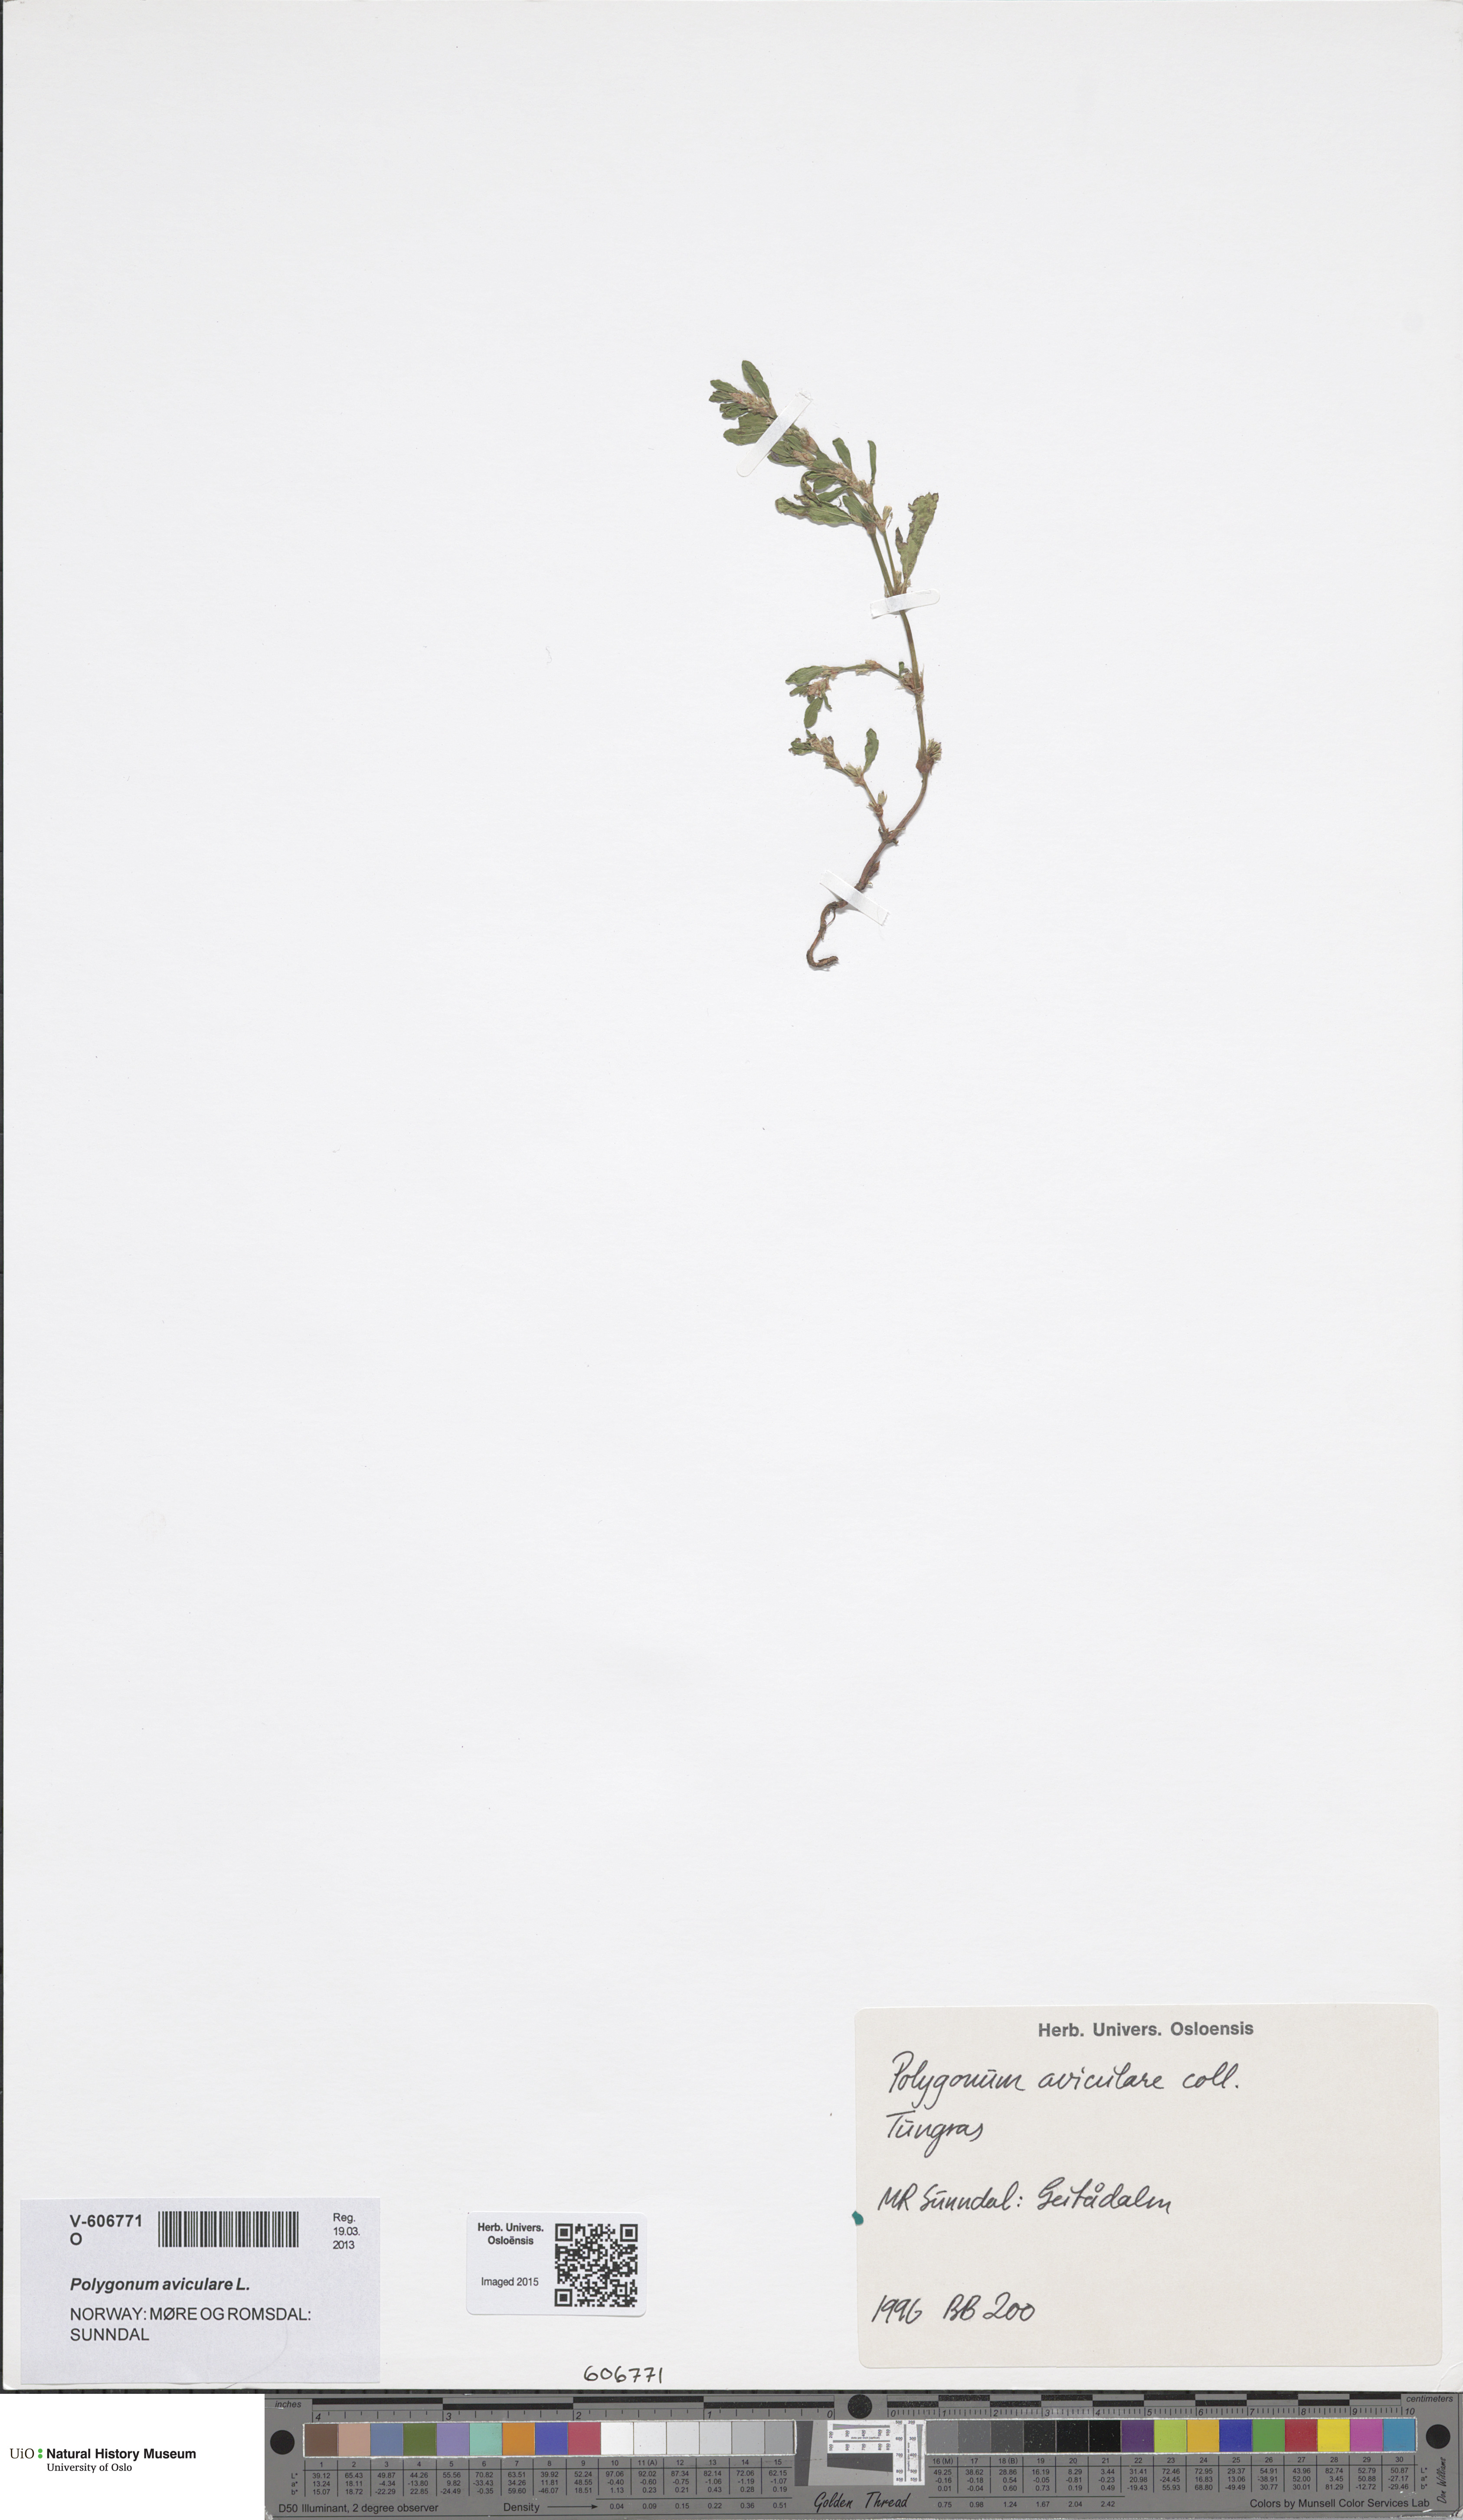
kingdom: Plantae
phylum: Tracheophyta
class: Magnoliopsida
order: Caryophyllales
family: Polygonaceae
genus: Polygonum
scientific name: Polygonum aviculare
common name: Prostrate knotweed
